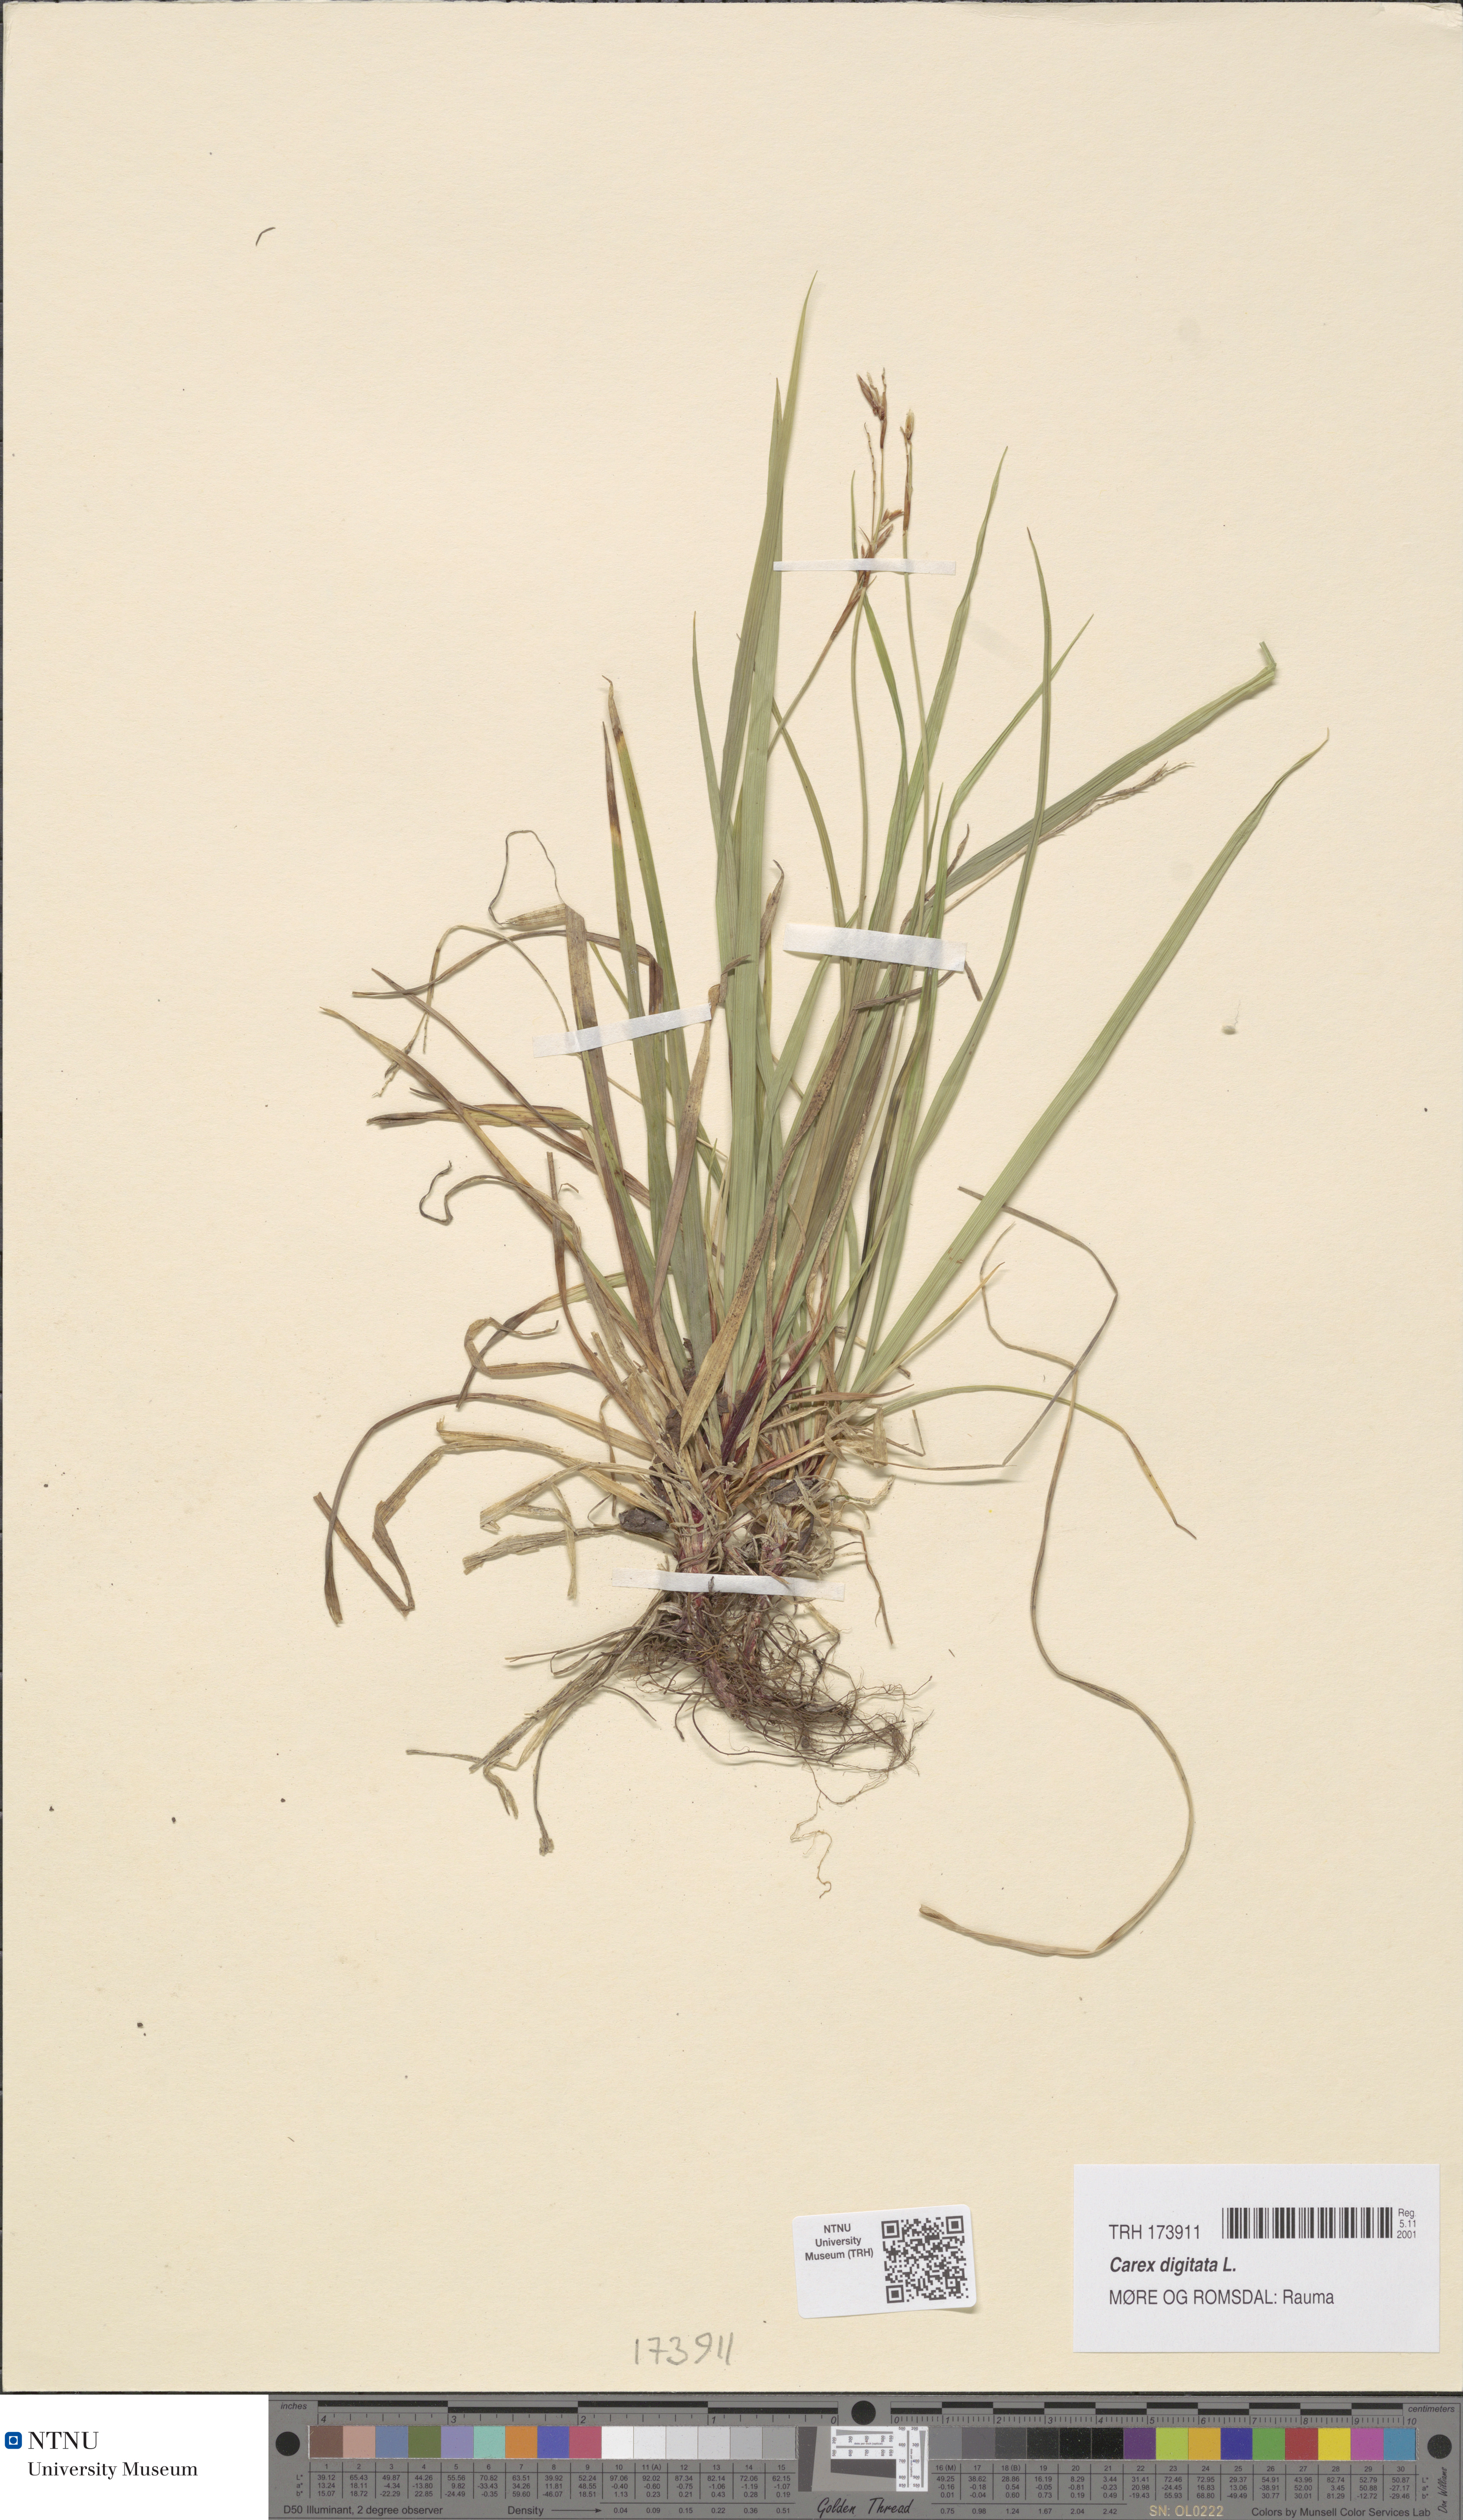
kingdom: Plantae
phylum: Tracheophyta
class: Liliopsida
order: Poales
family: Cyperaceae
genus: Carex
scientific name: Carex digitata
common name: Fingered sedge
